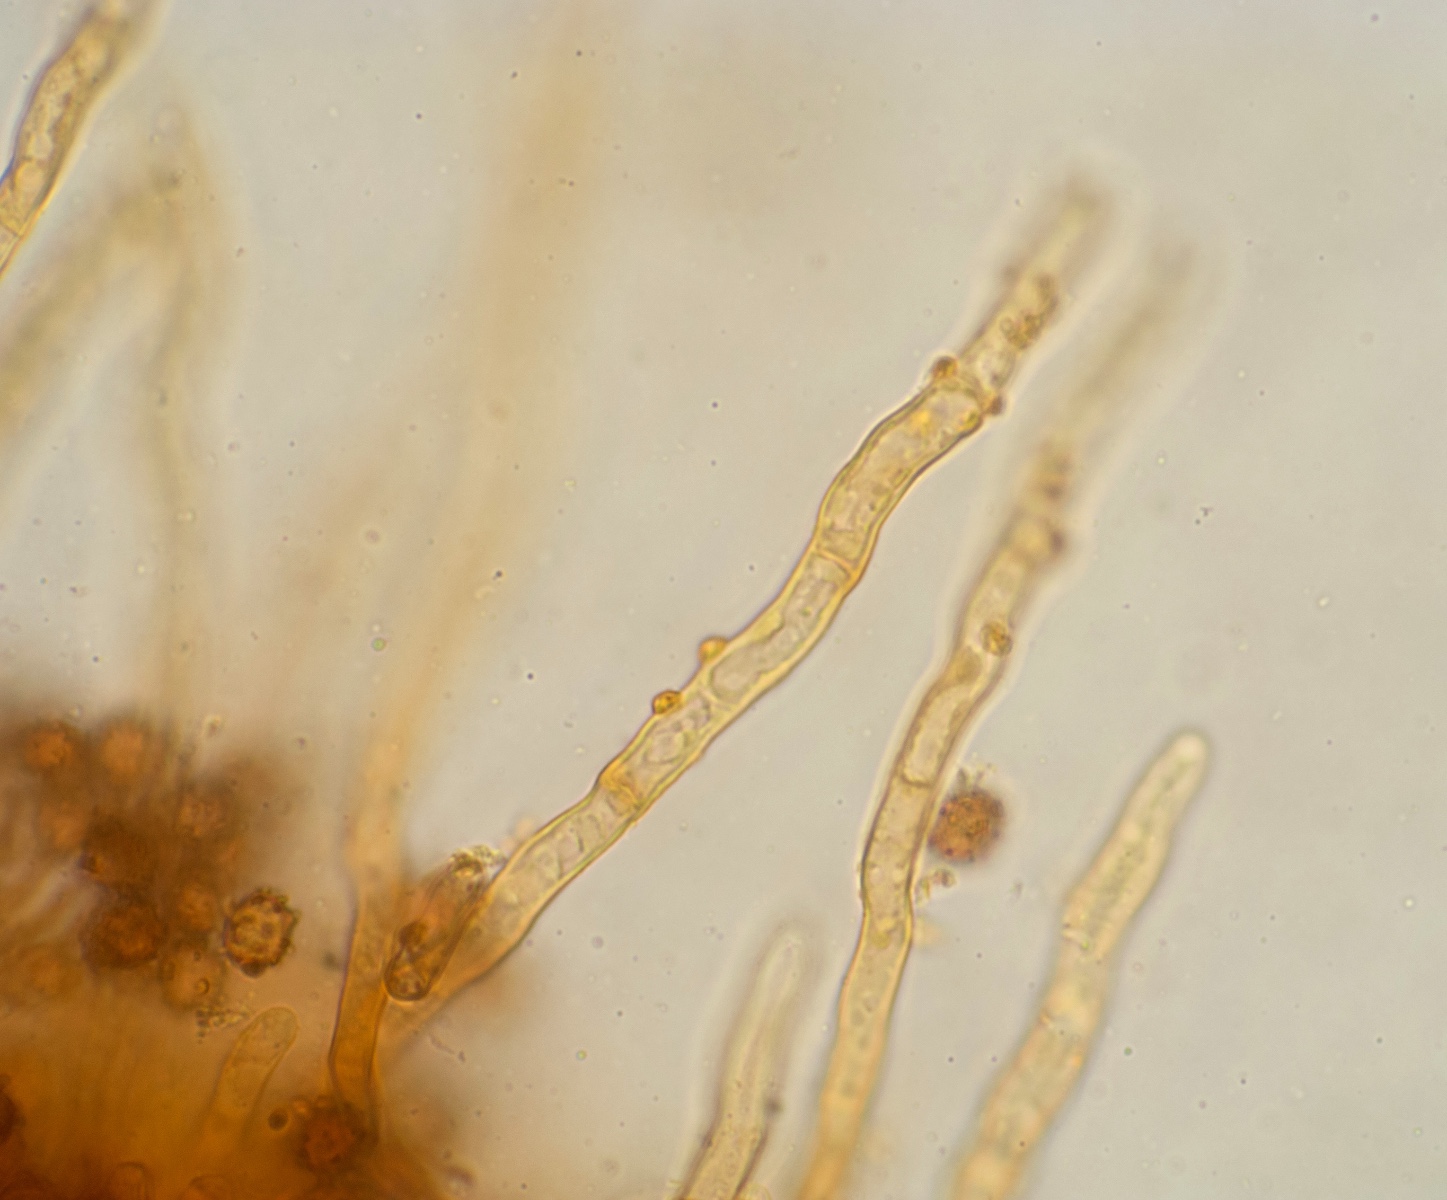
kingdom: Fungi
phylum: Basidiomycota
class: Agaricomycetes
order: Thelephorales
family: Thelephoraceae
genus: Odontia
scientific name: Odontia fibrosa
